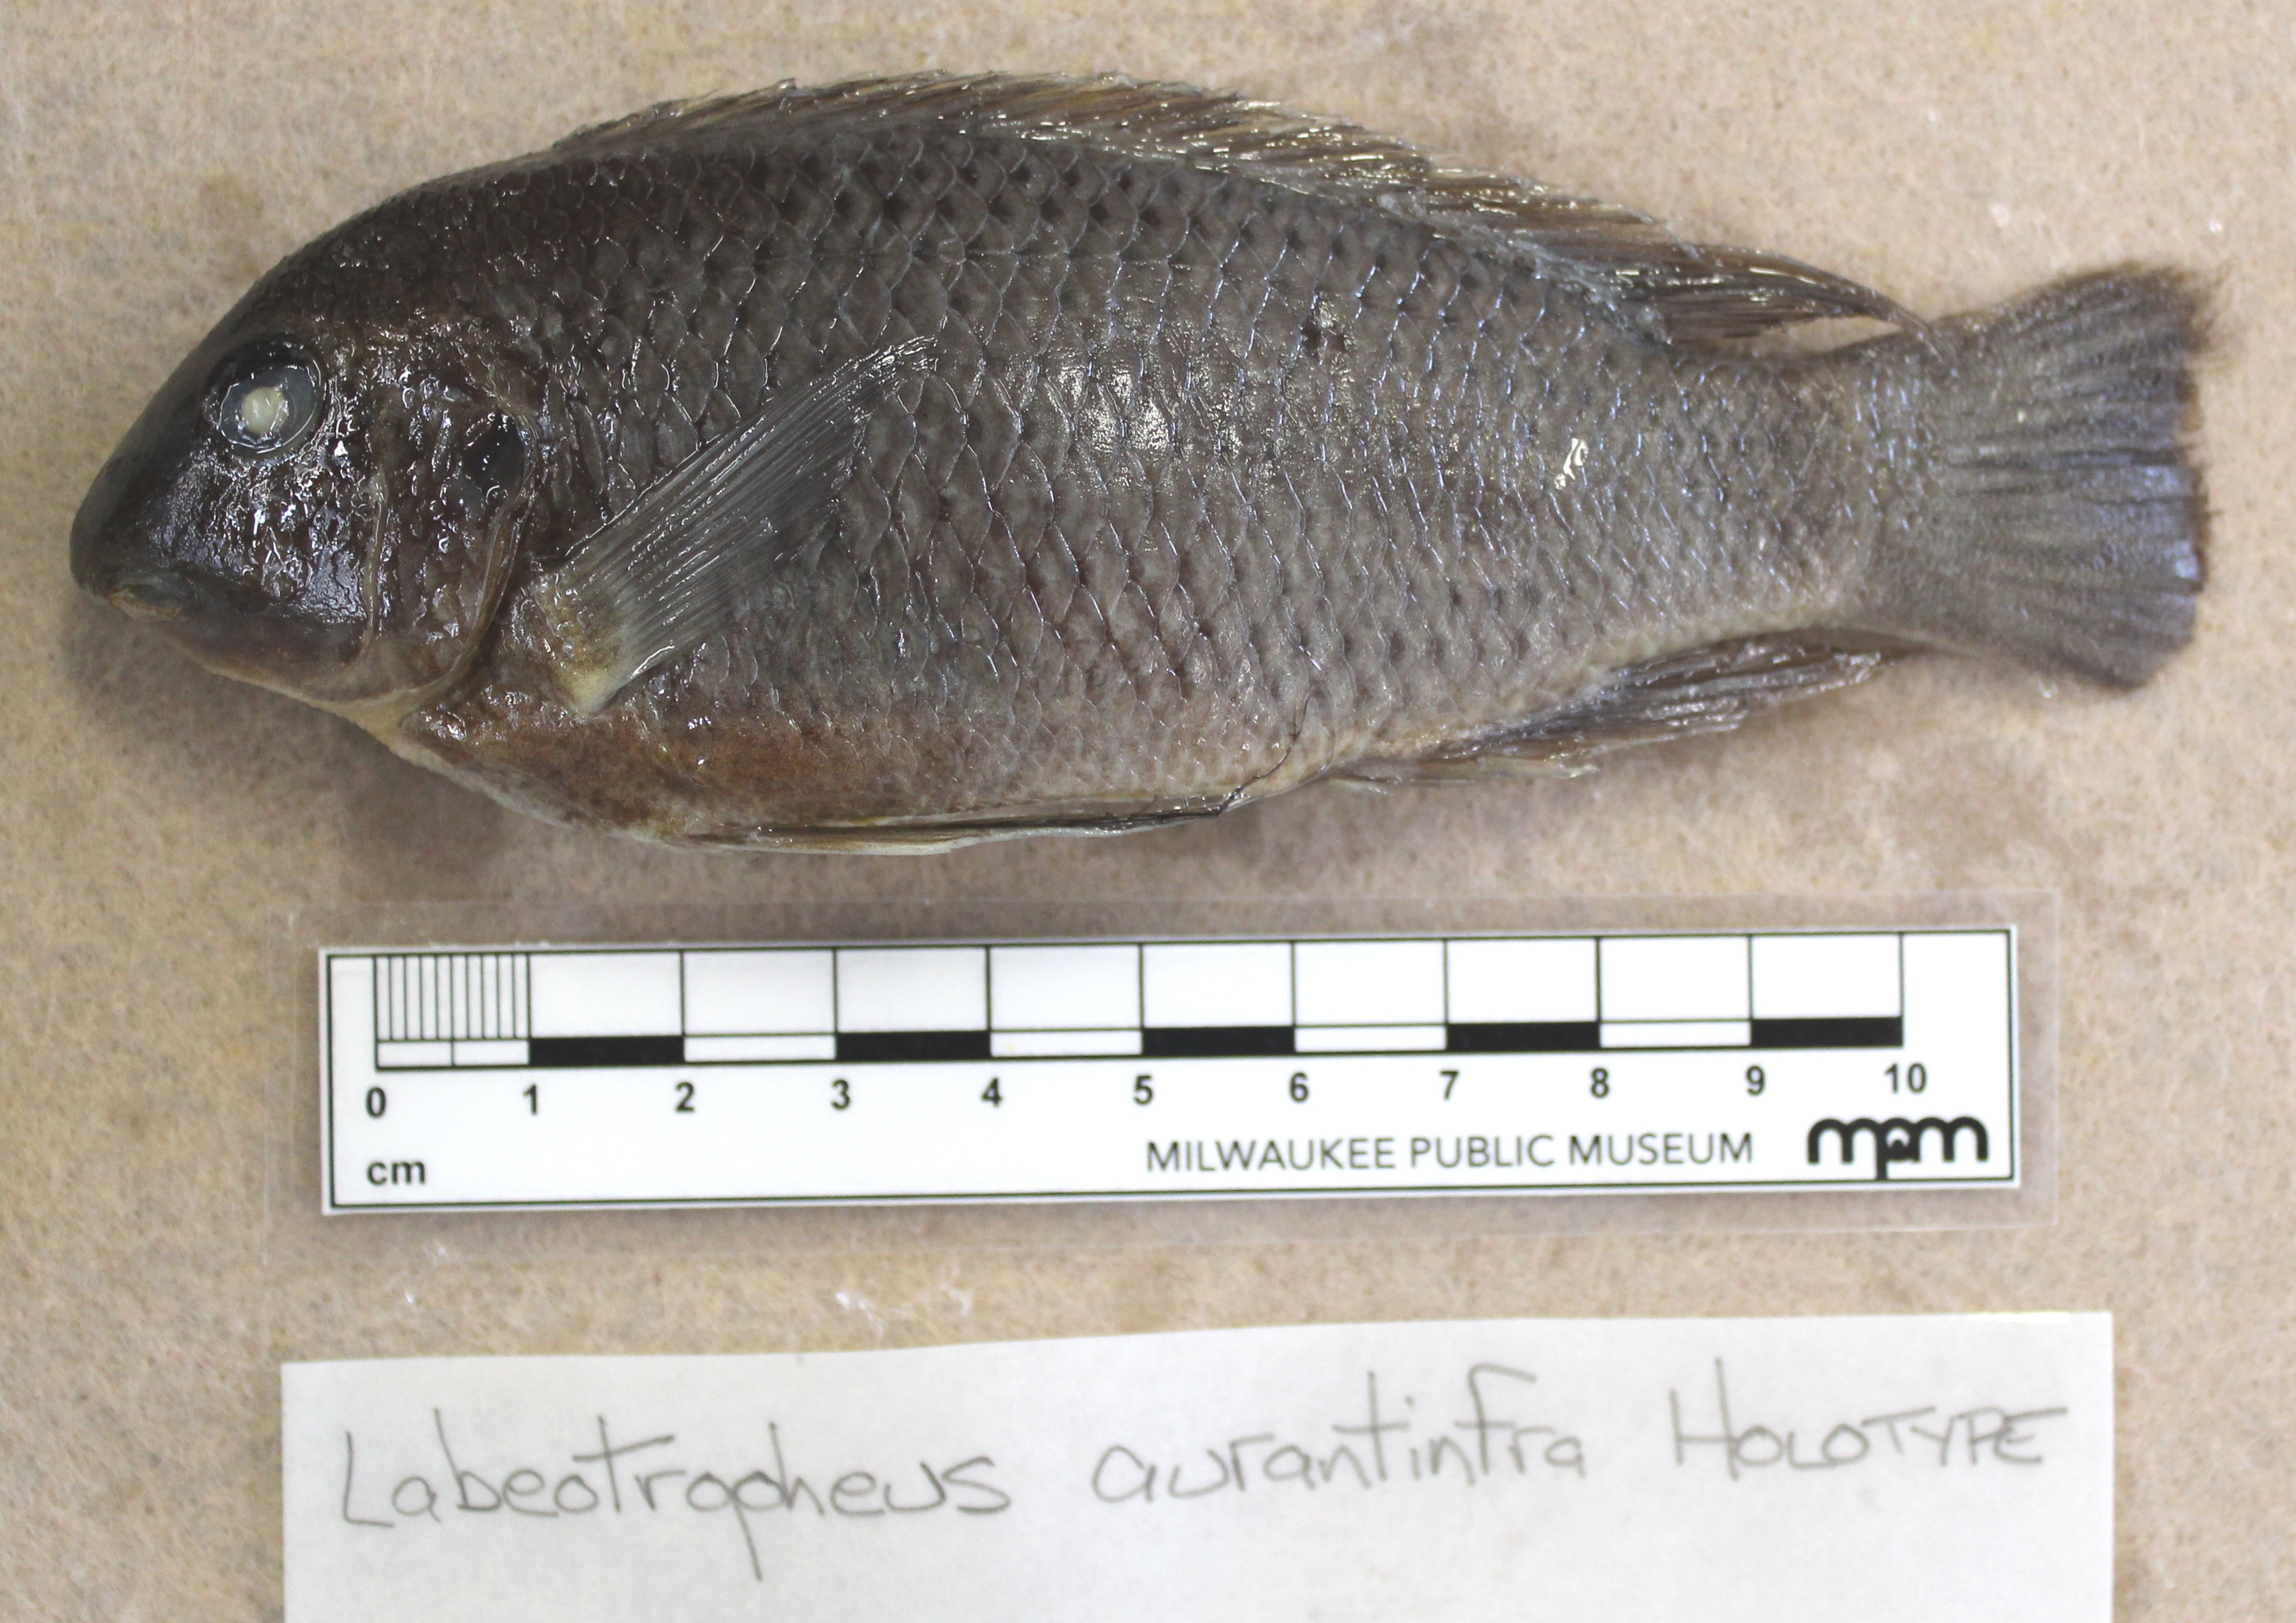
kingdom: Animalia
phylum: Chordata
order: Perciformes
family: Cichlidae
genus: Labeotropheus
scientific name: Labeotropheus
